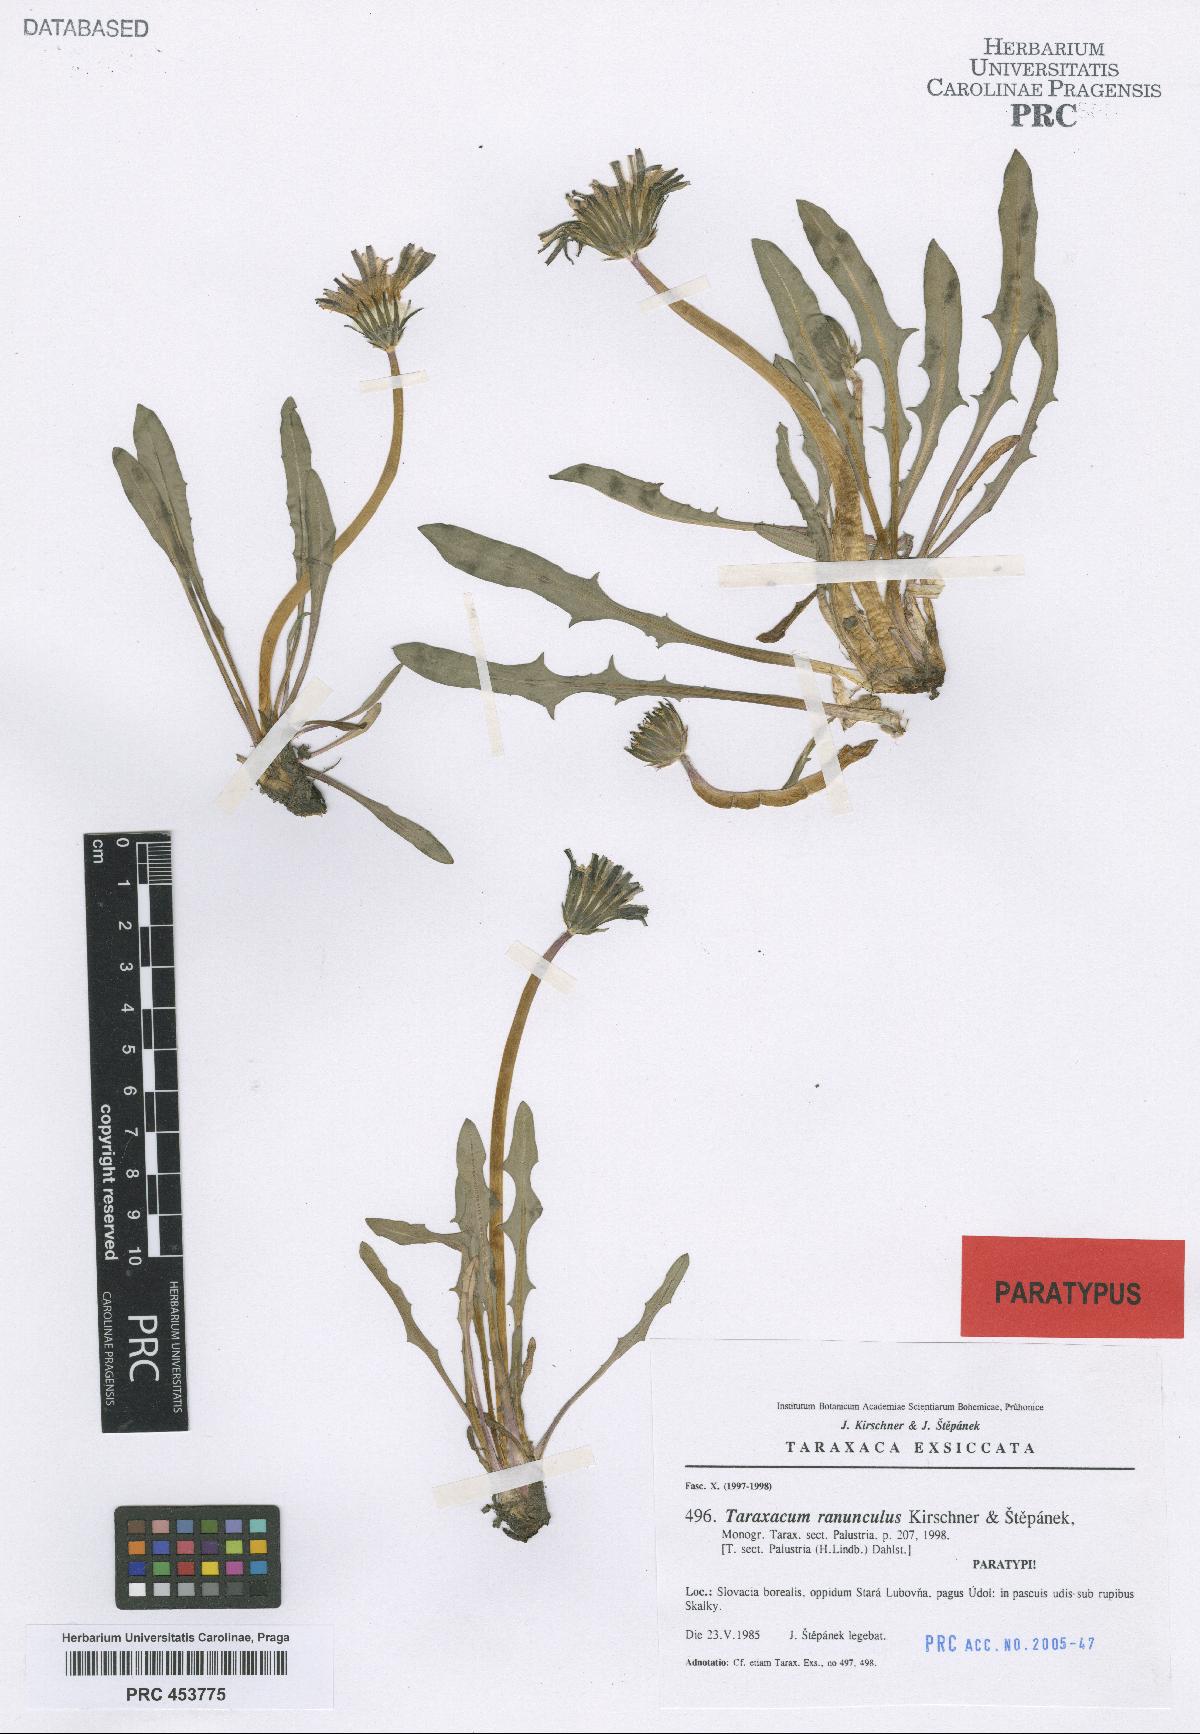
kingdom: Plantae
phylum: Tracheophyta
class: Magnoliopsida
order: Asterales
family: Asteraceae
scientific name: Asteraceae
